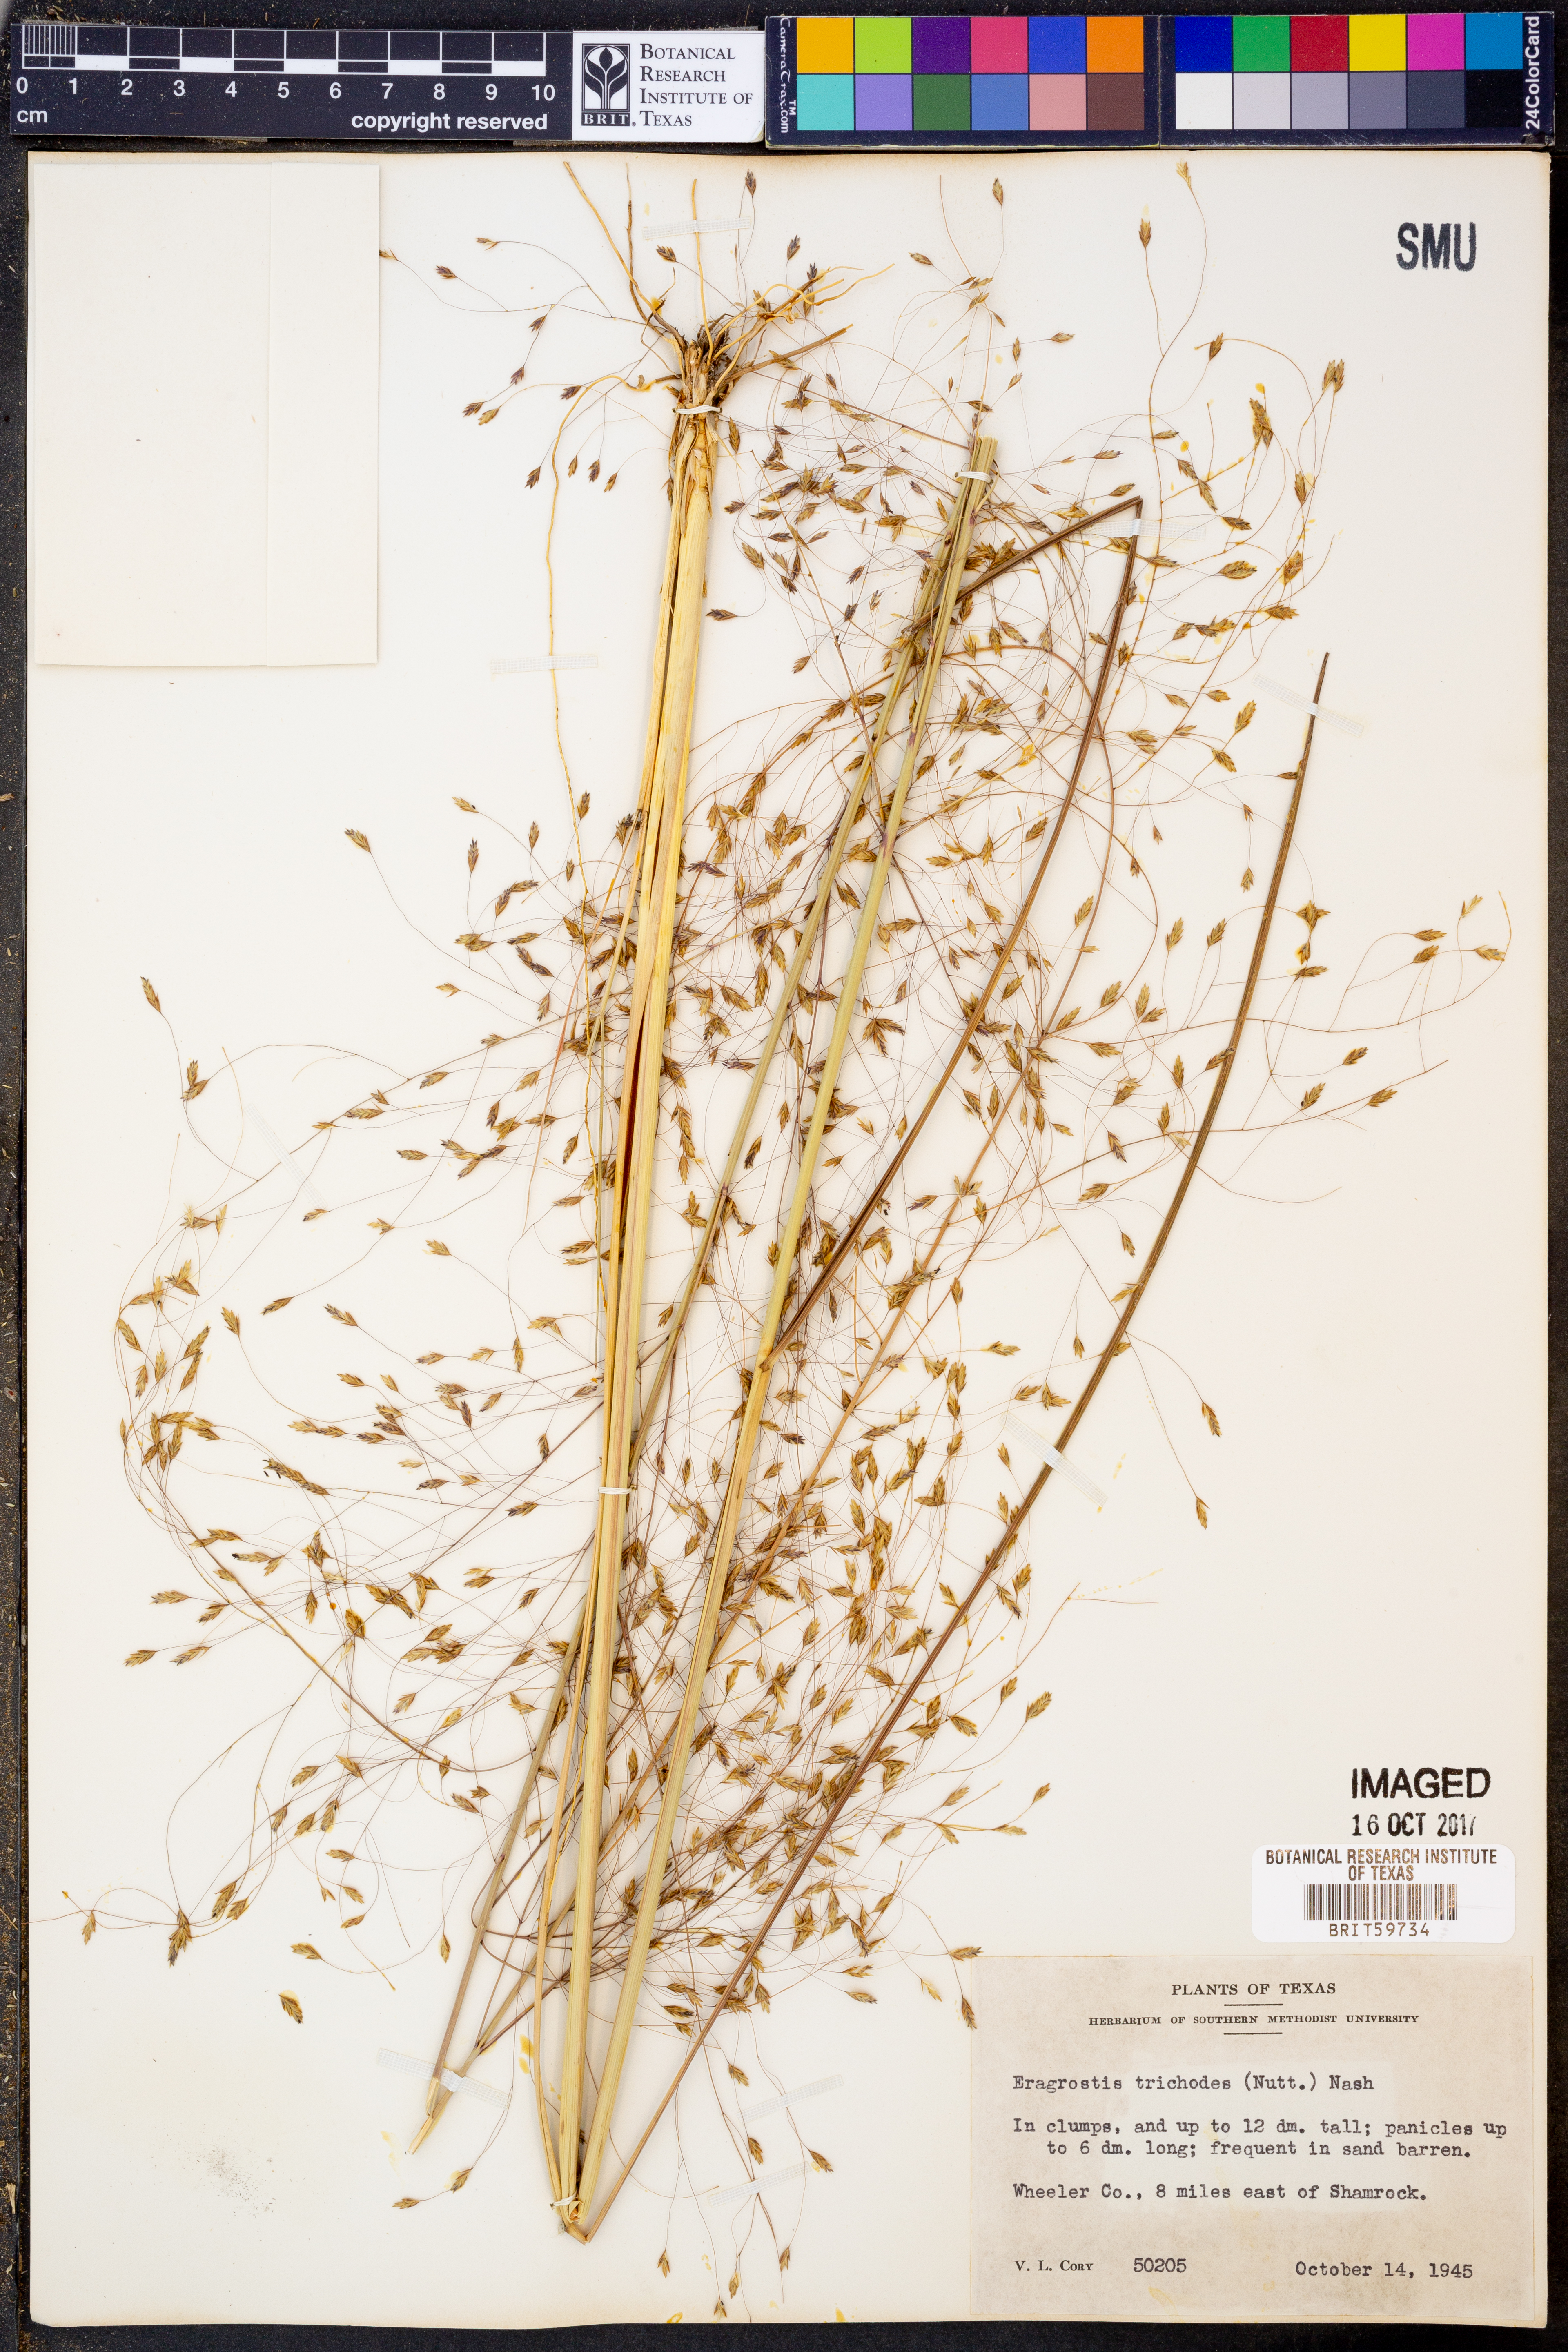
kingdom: Plantae
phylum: Tracheophyta
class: Liliopsida
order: Poales
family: Poaceae
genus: Eragrostis
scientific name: Eragrostis trichodes
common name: Sand love grass
